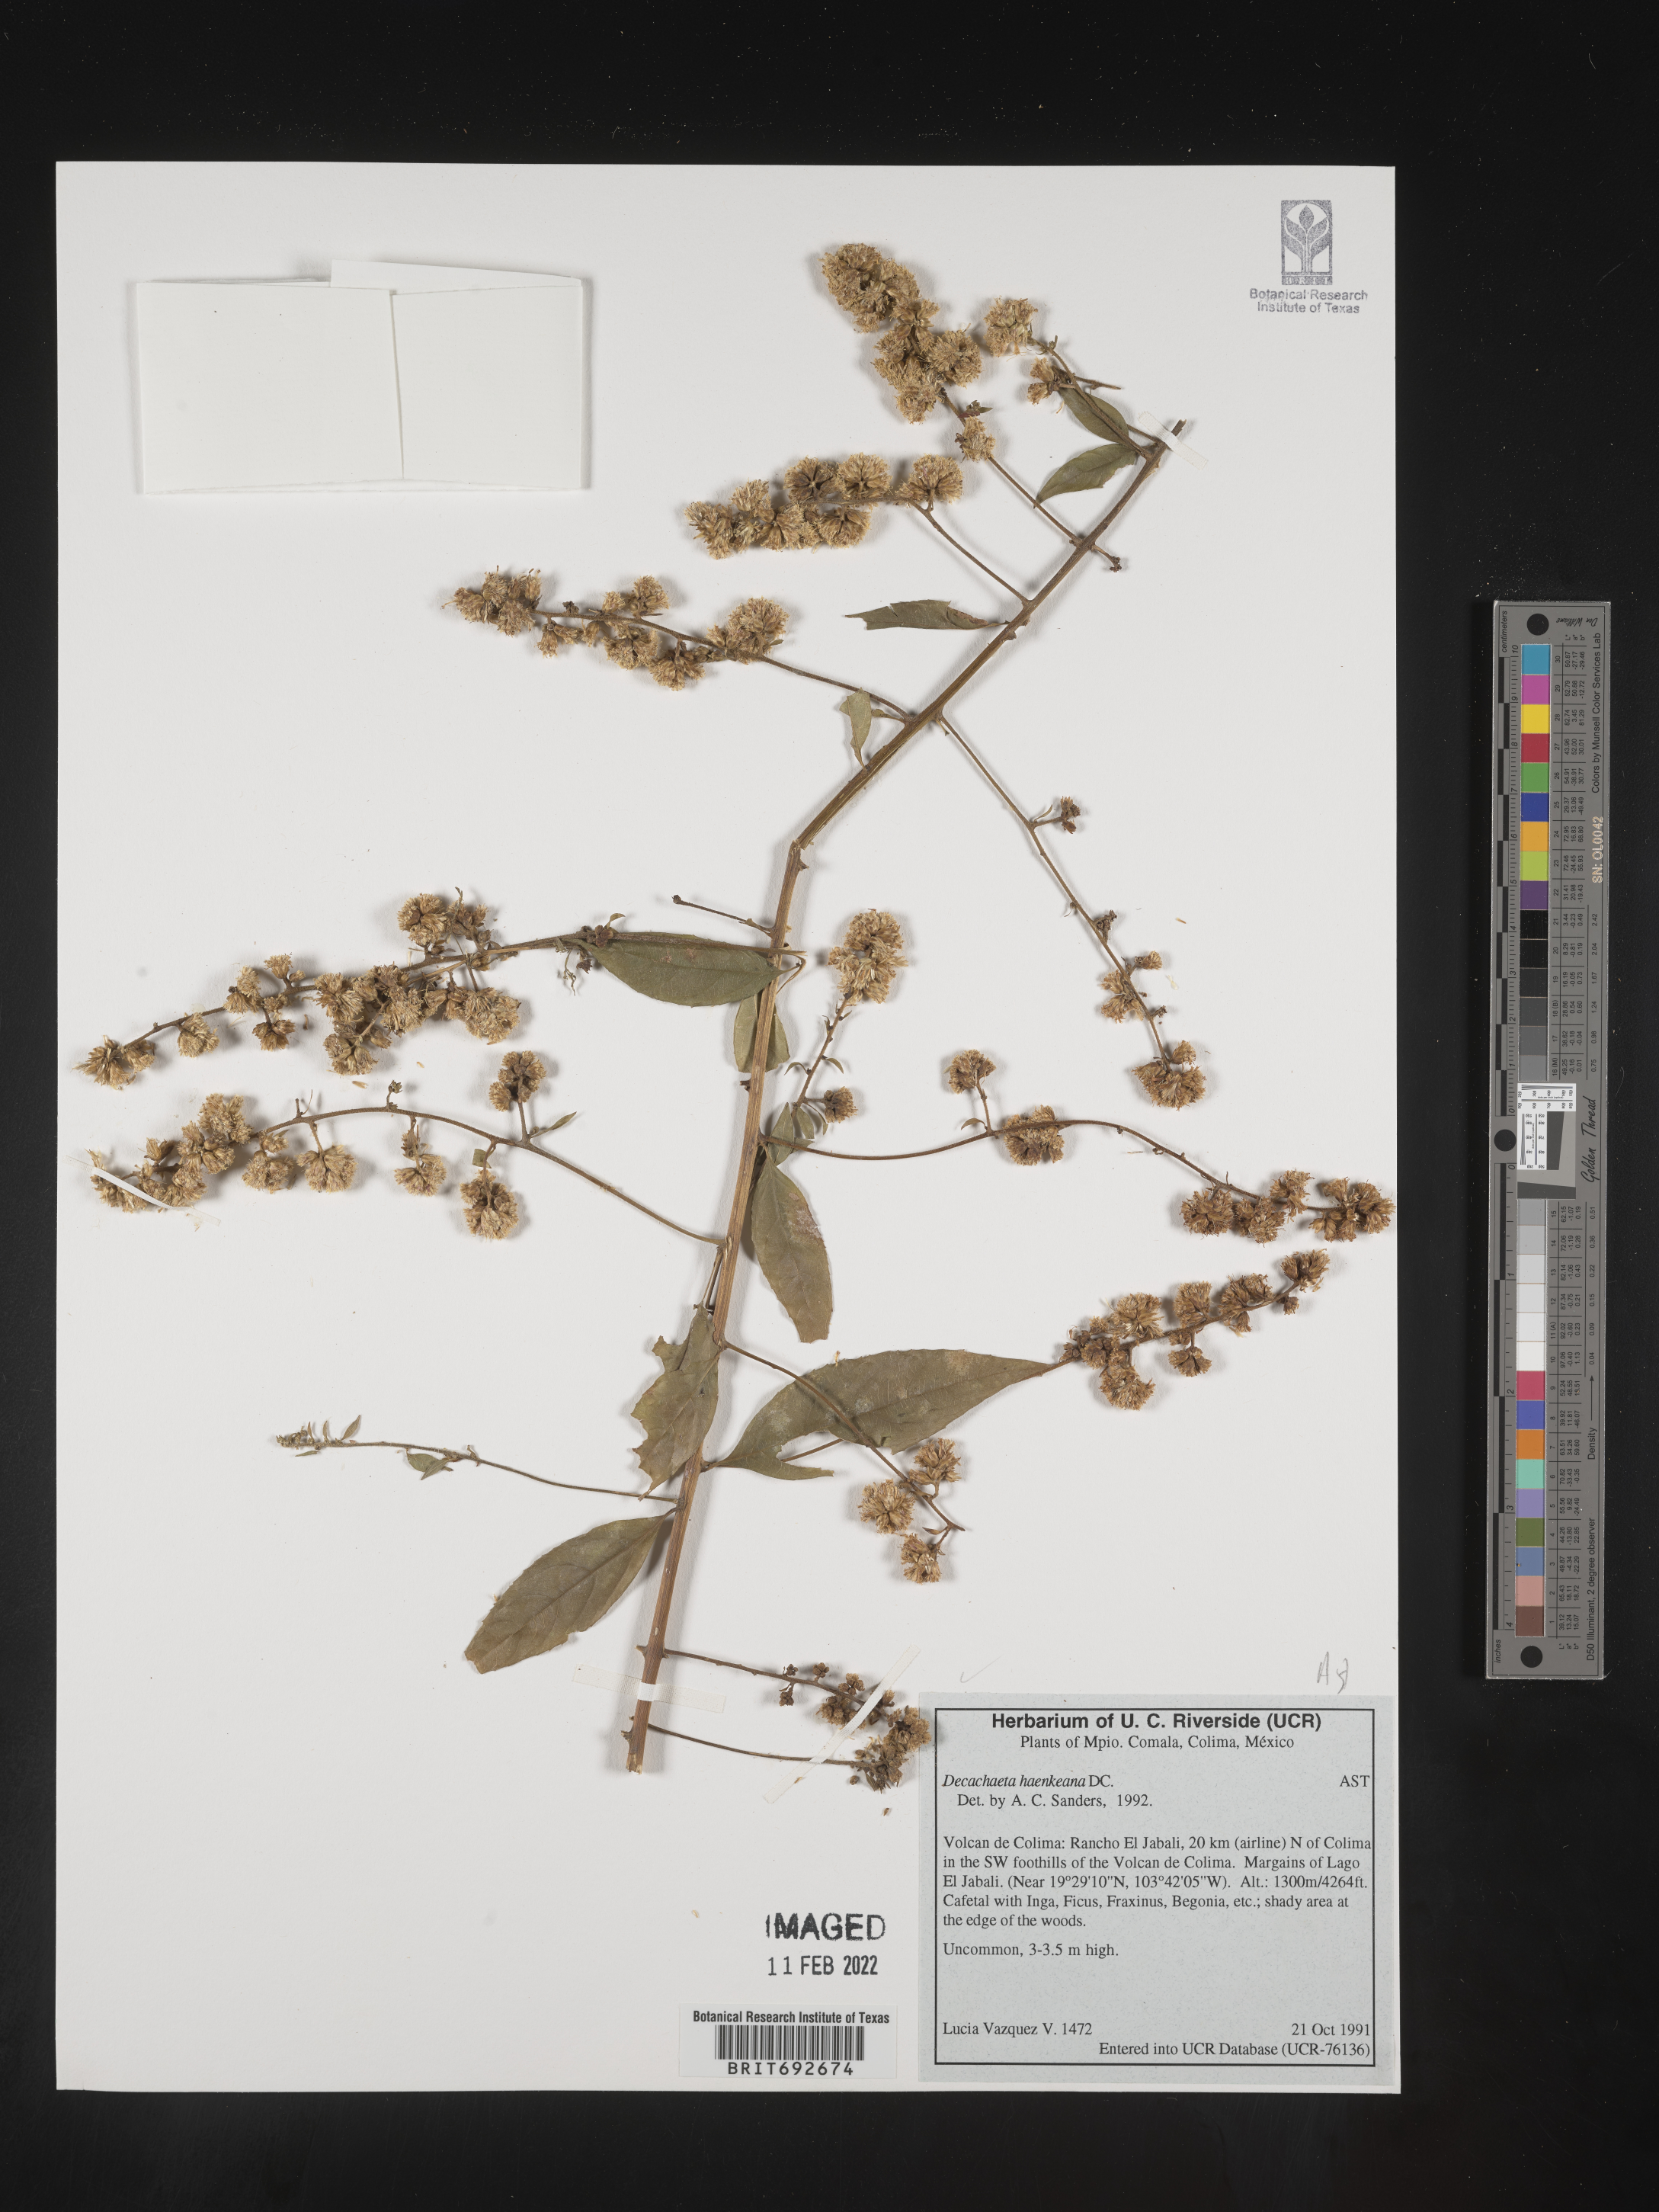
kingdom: Plantae
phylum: Tracheophyta
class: Magnoliopsida
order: Asterales
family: Asteraceae
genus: Decachaeta
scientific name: Decachaeta
